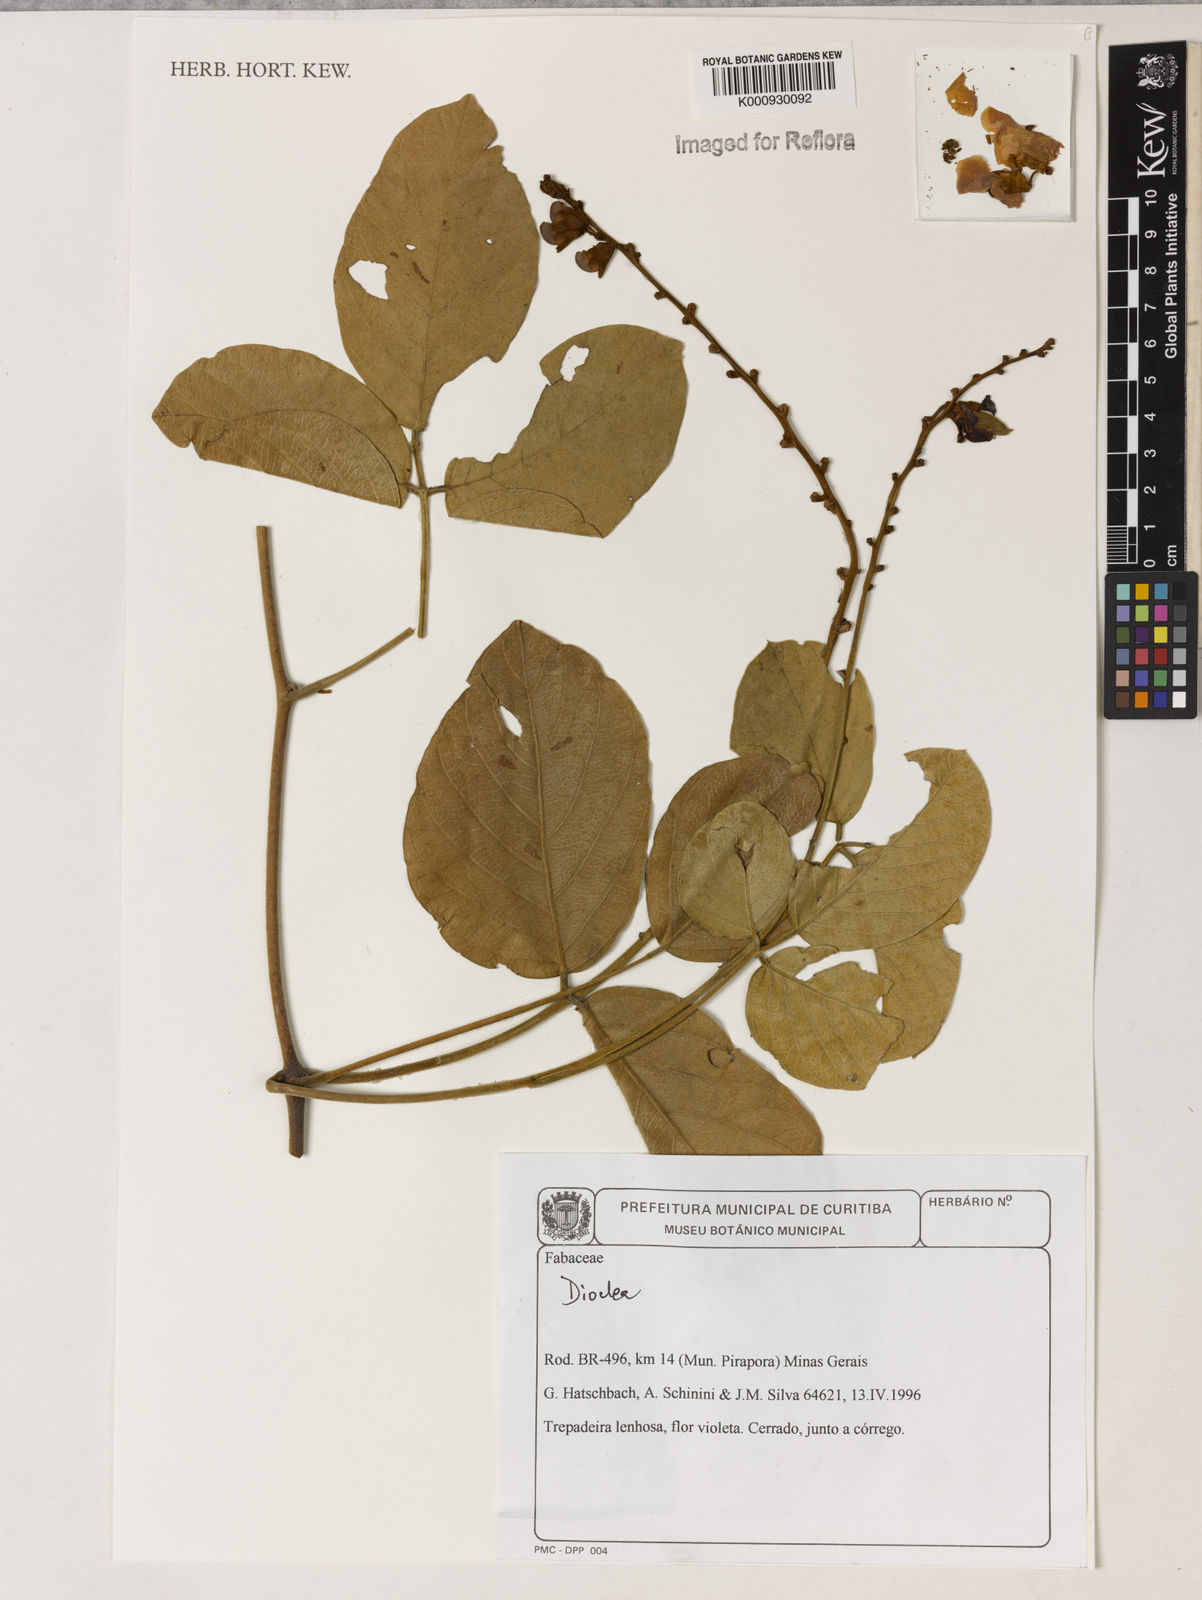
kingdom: Plantae
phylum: Tracheophyta
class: Magnoliopsida
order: Fabales
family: Fabaceae
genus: Dioclea
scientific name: Dioclea
